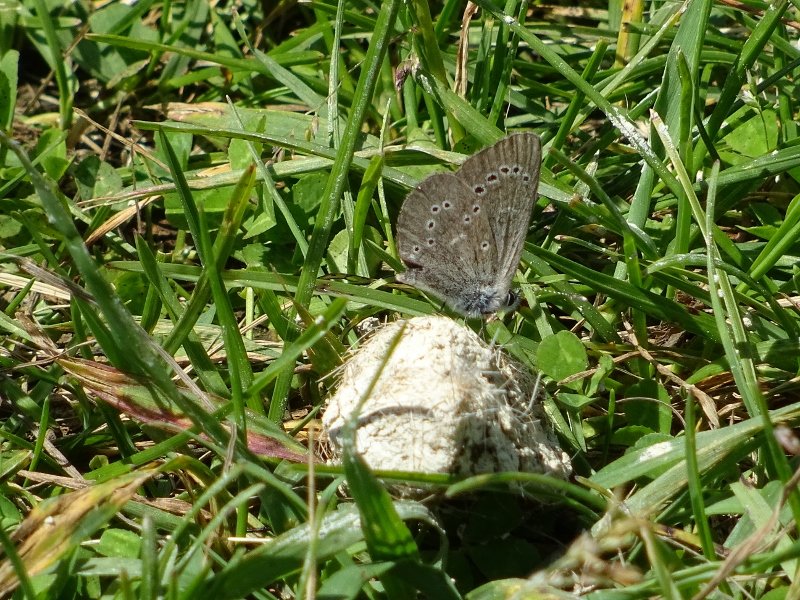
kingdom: Animalia
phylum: Arthropoda
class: Insecta
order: Lepidoptera
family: Lycaenidae
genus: Glaucopsyche
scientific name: Glaucopsyche lygdamus
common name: Silvery Blue
